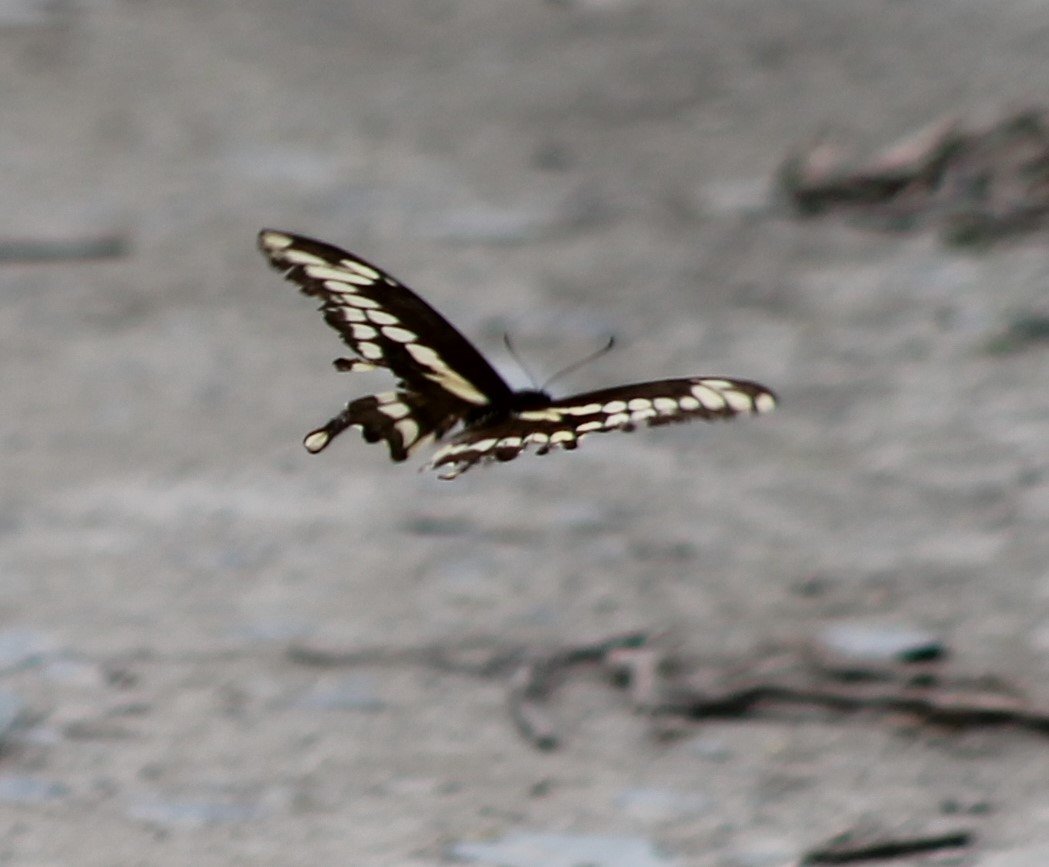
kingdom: Animalia
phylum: Arthropoda
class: Insecta
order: Lepidoptera
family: Papilionidae
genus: Papilio
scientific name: Papilio cresphontes
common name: Eastern Giant Swallowtail
